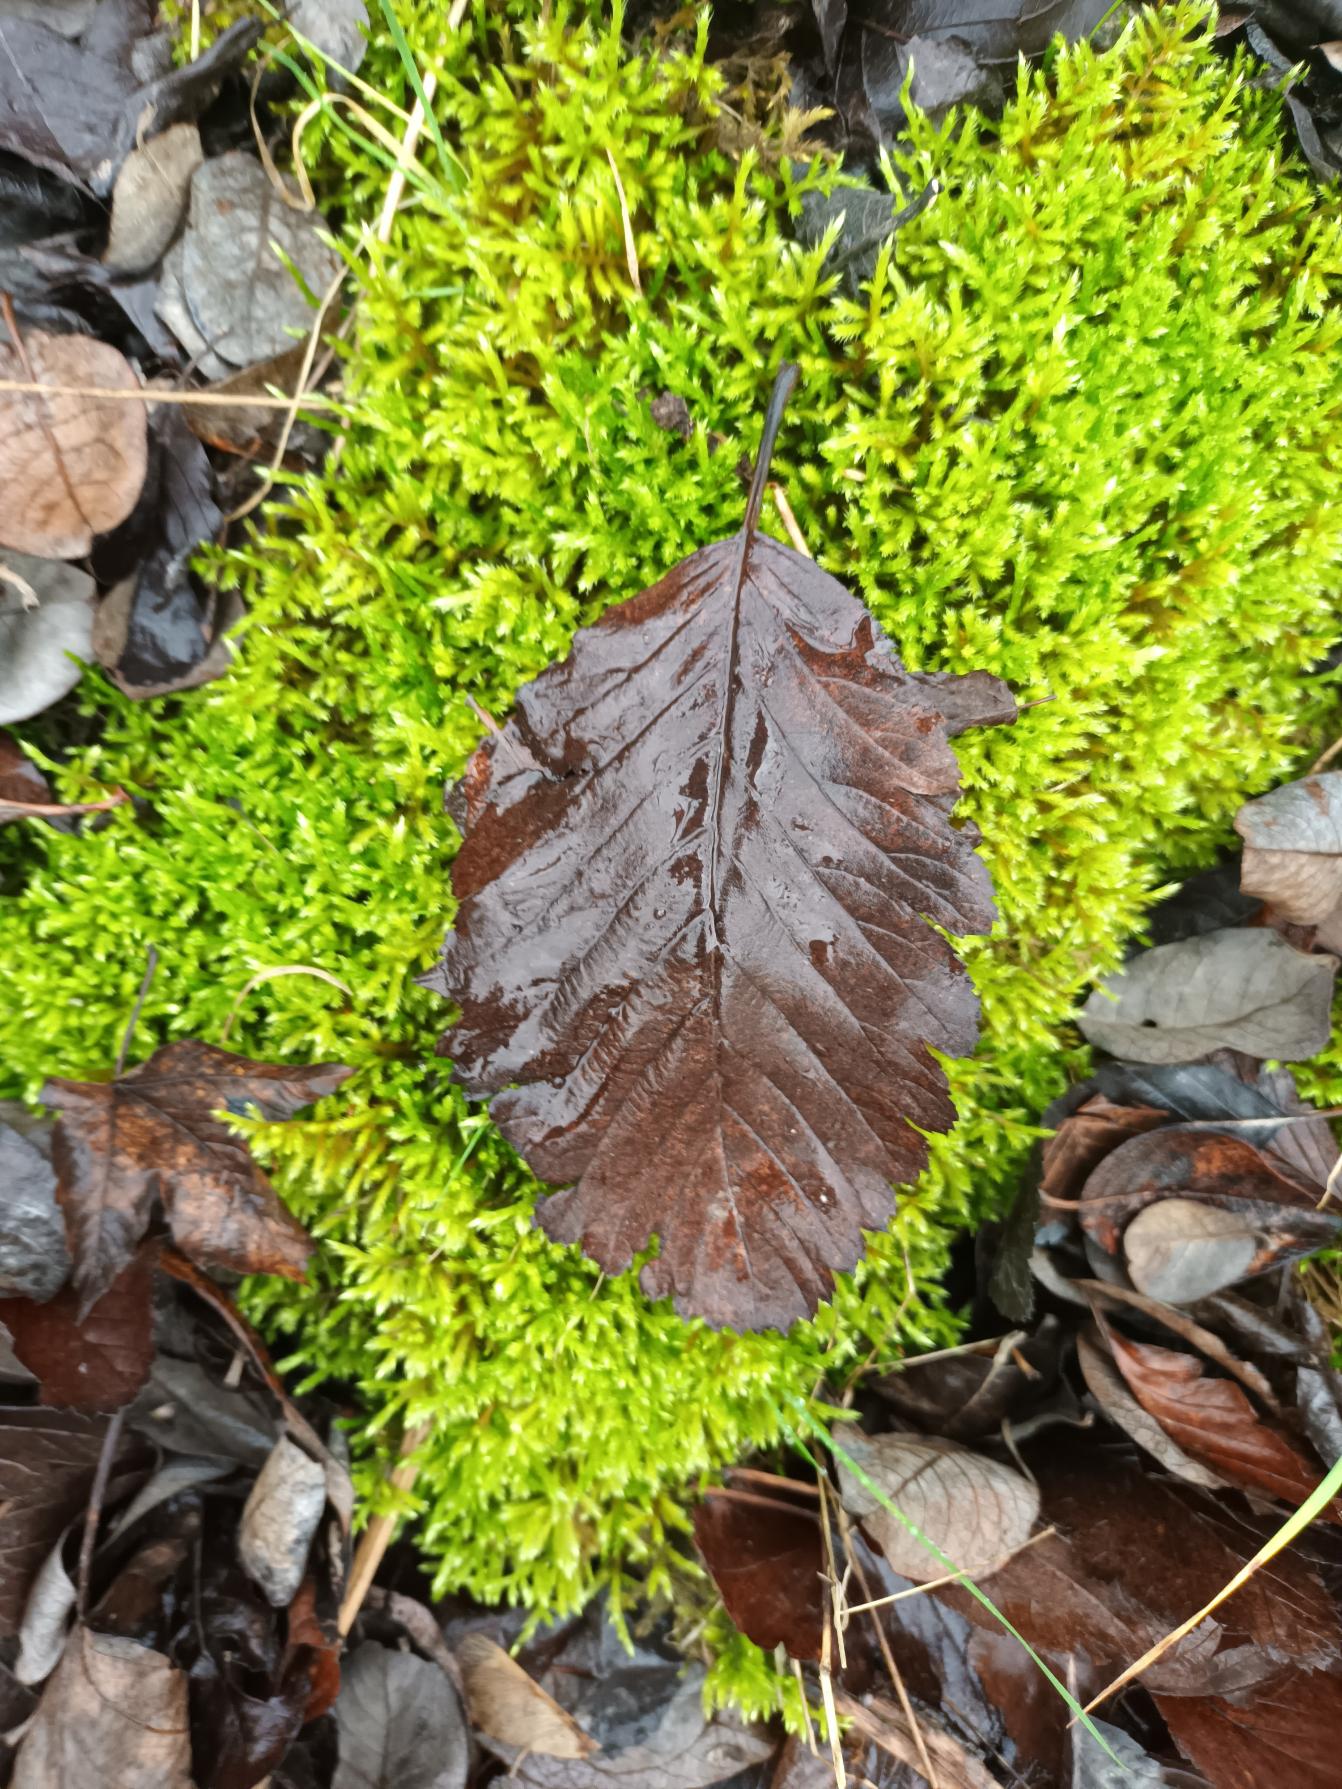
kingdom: Plantae
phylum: Tracheophyta
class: Magnoliopsida
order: Rosales
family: Rosaceae
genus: Hedlundia
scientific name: Hedlundia mougeotii
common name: Pyrenæisk røn
